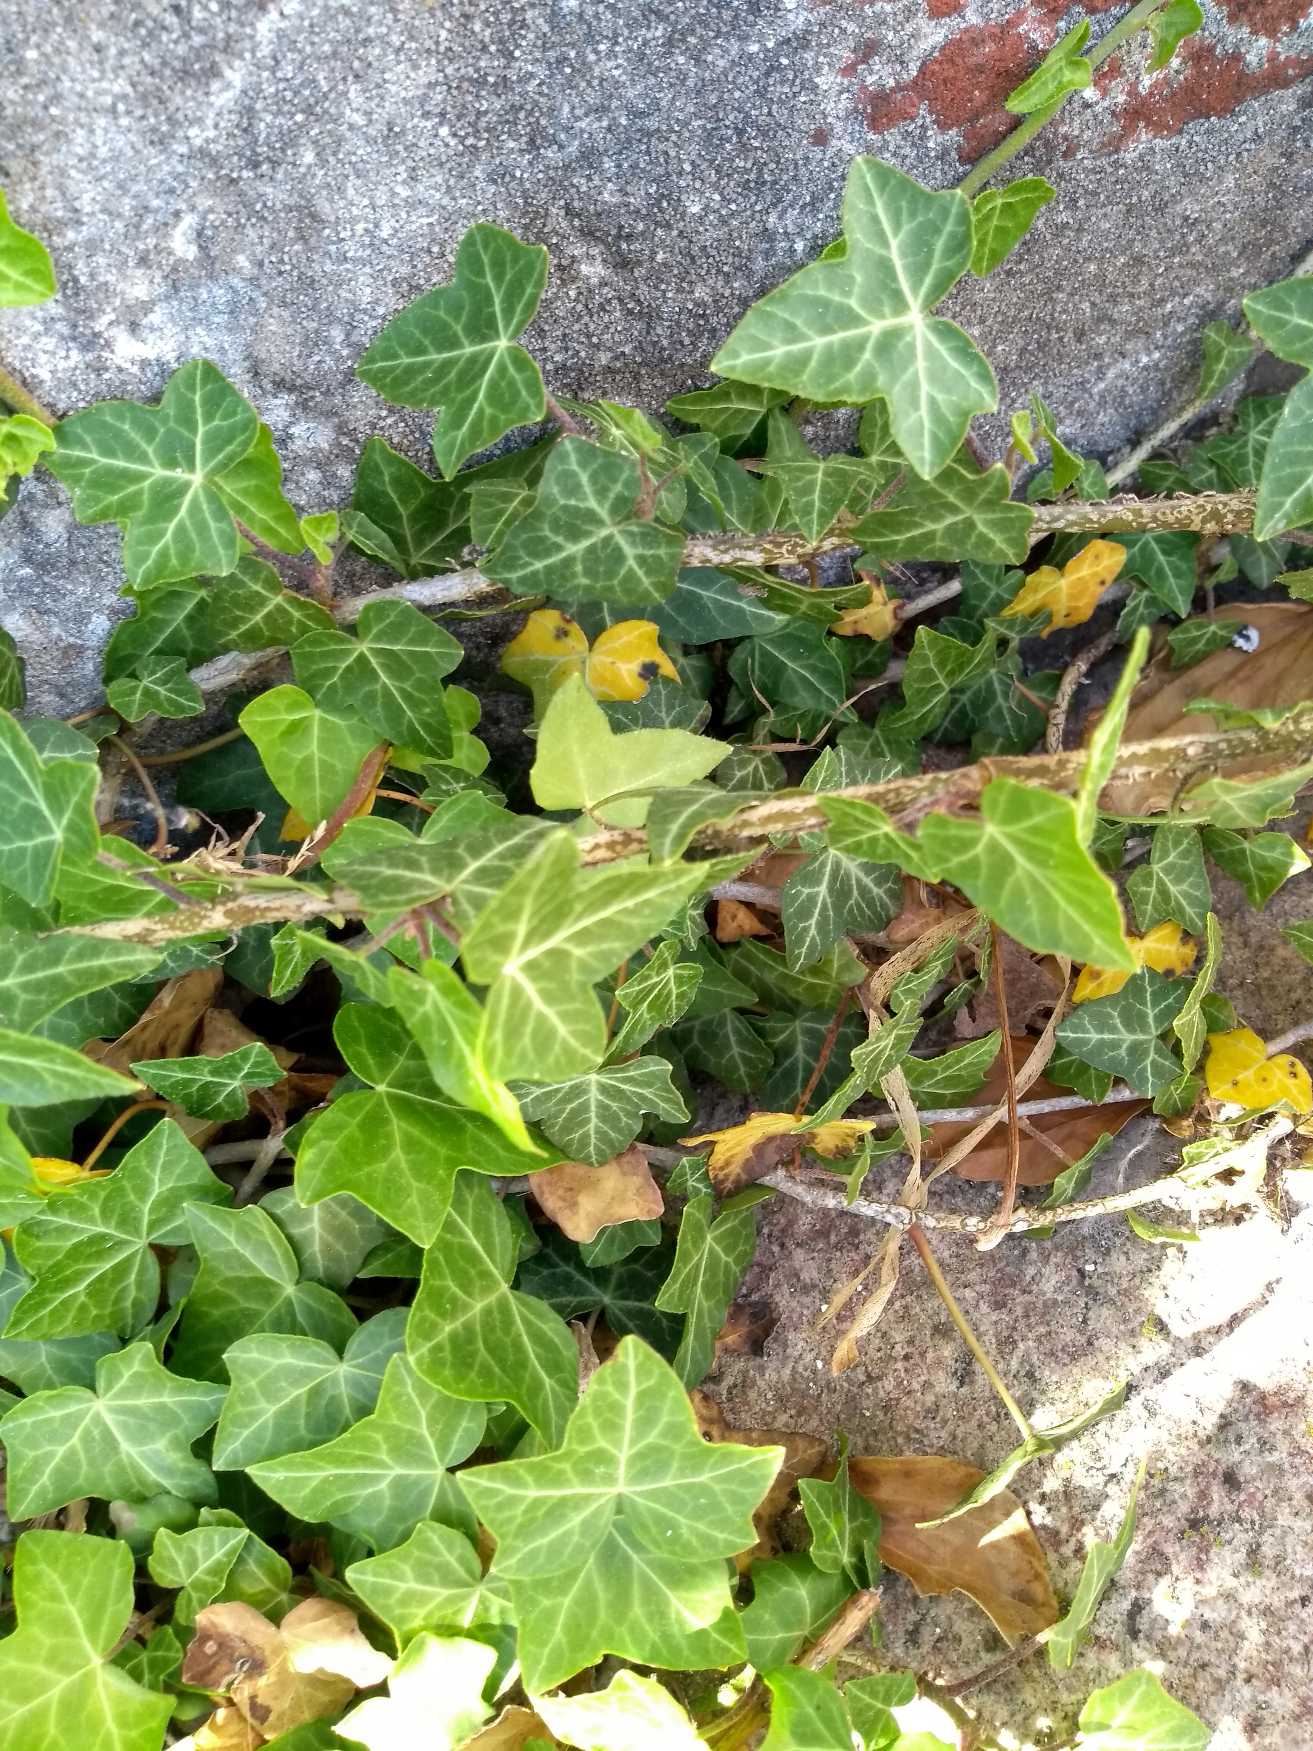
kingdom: Plantae
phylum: Tracheophyta
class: Magnoliopsida
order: Apiales
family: Araliaceae
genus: Hedera
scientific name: Hedera helix
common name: Vedbend
